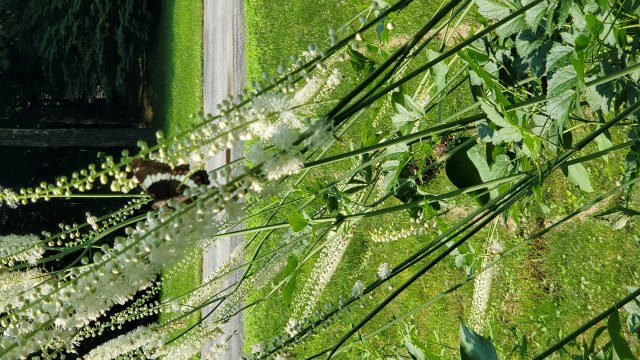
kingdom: Animalia
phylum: Arthropoda
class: Insecta
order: Lepidoptera
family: Nymphalidae
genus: Limenitis
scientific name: Limenitis arthemis
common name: Red-spotted Admiral
